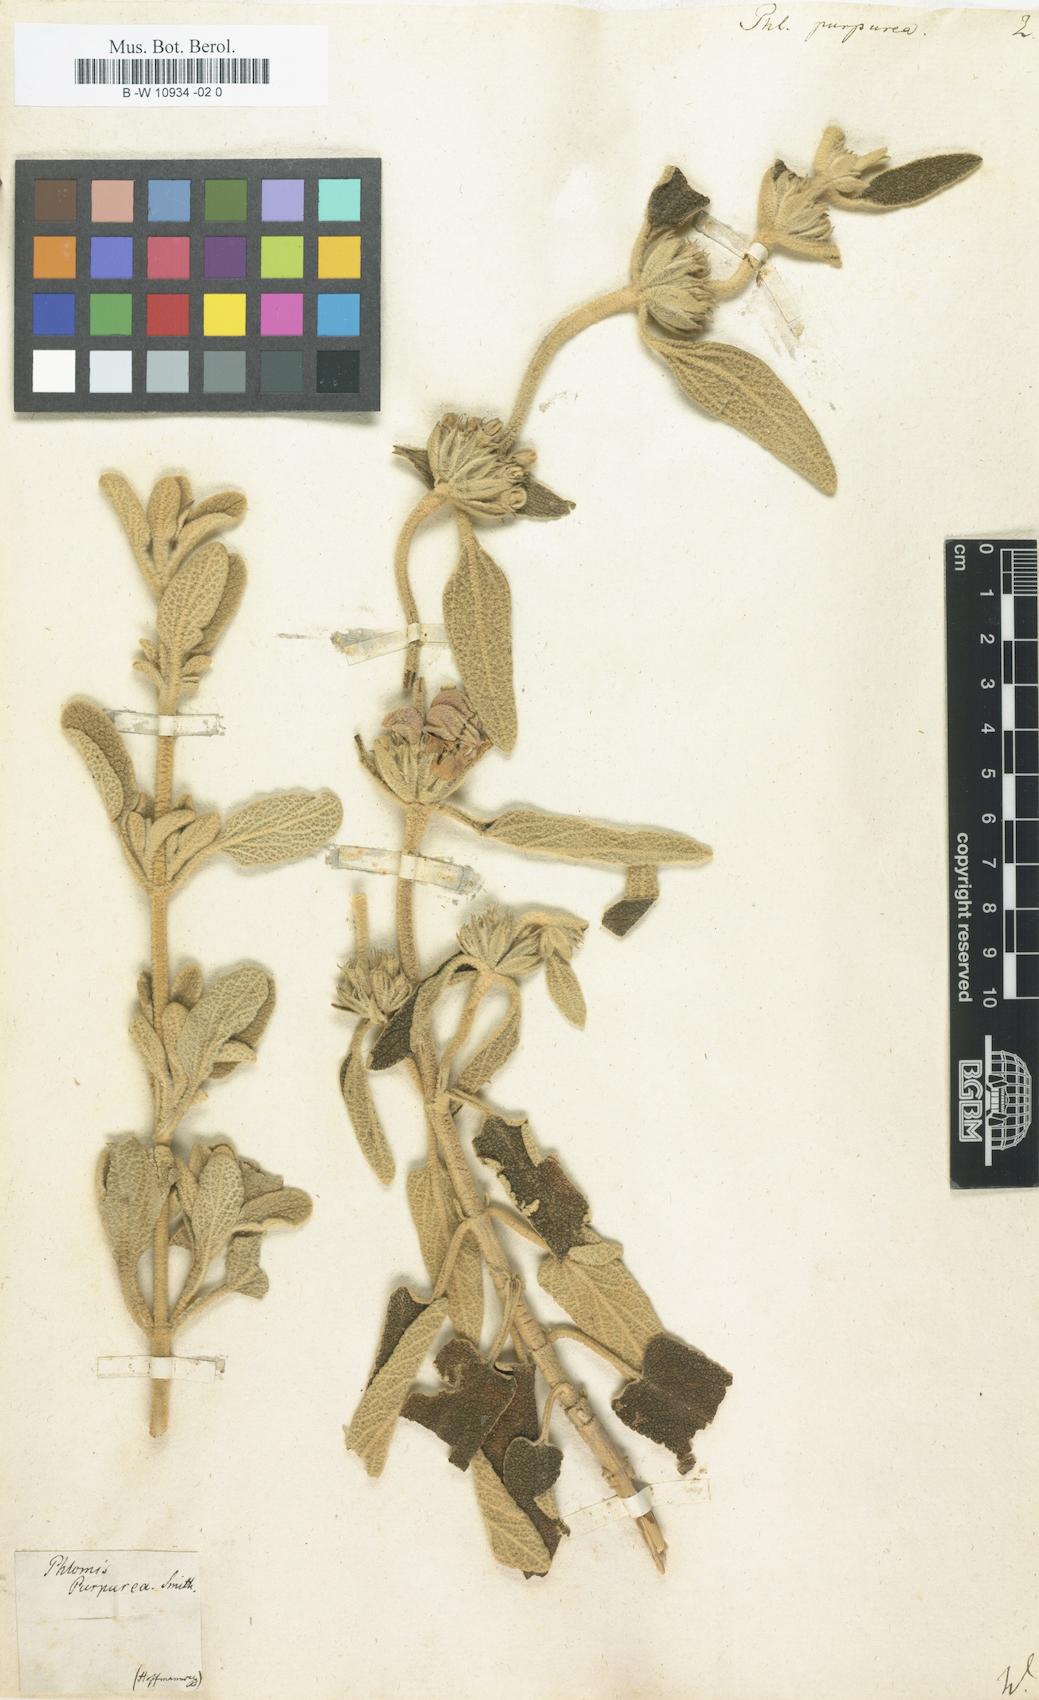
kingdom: Plantae
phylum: Tracheophyta
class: Magnoliopsida
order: Lamiales
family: Lamiaceae
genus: Phlomis
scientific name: Phlomis purpurea
